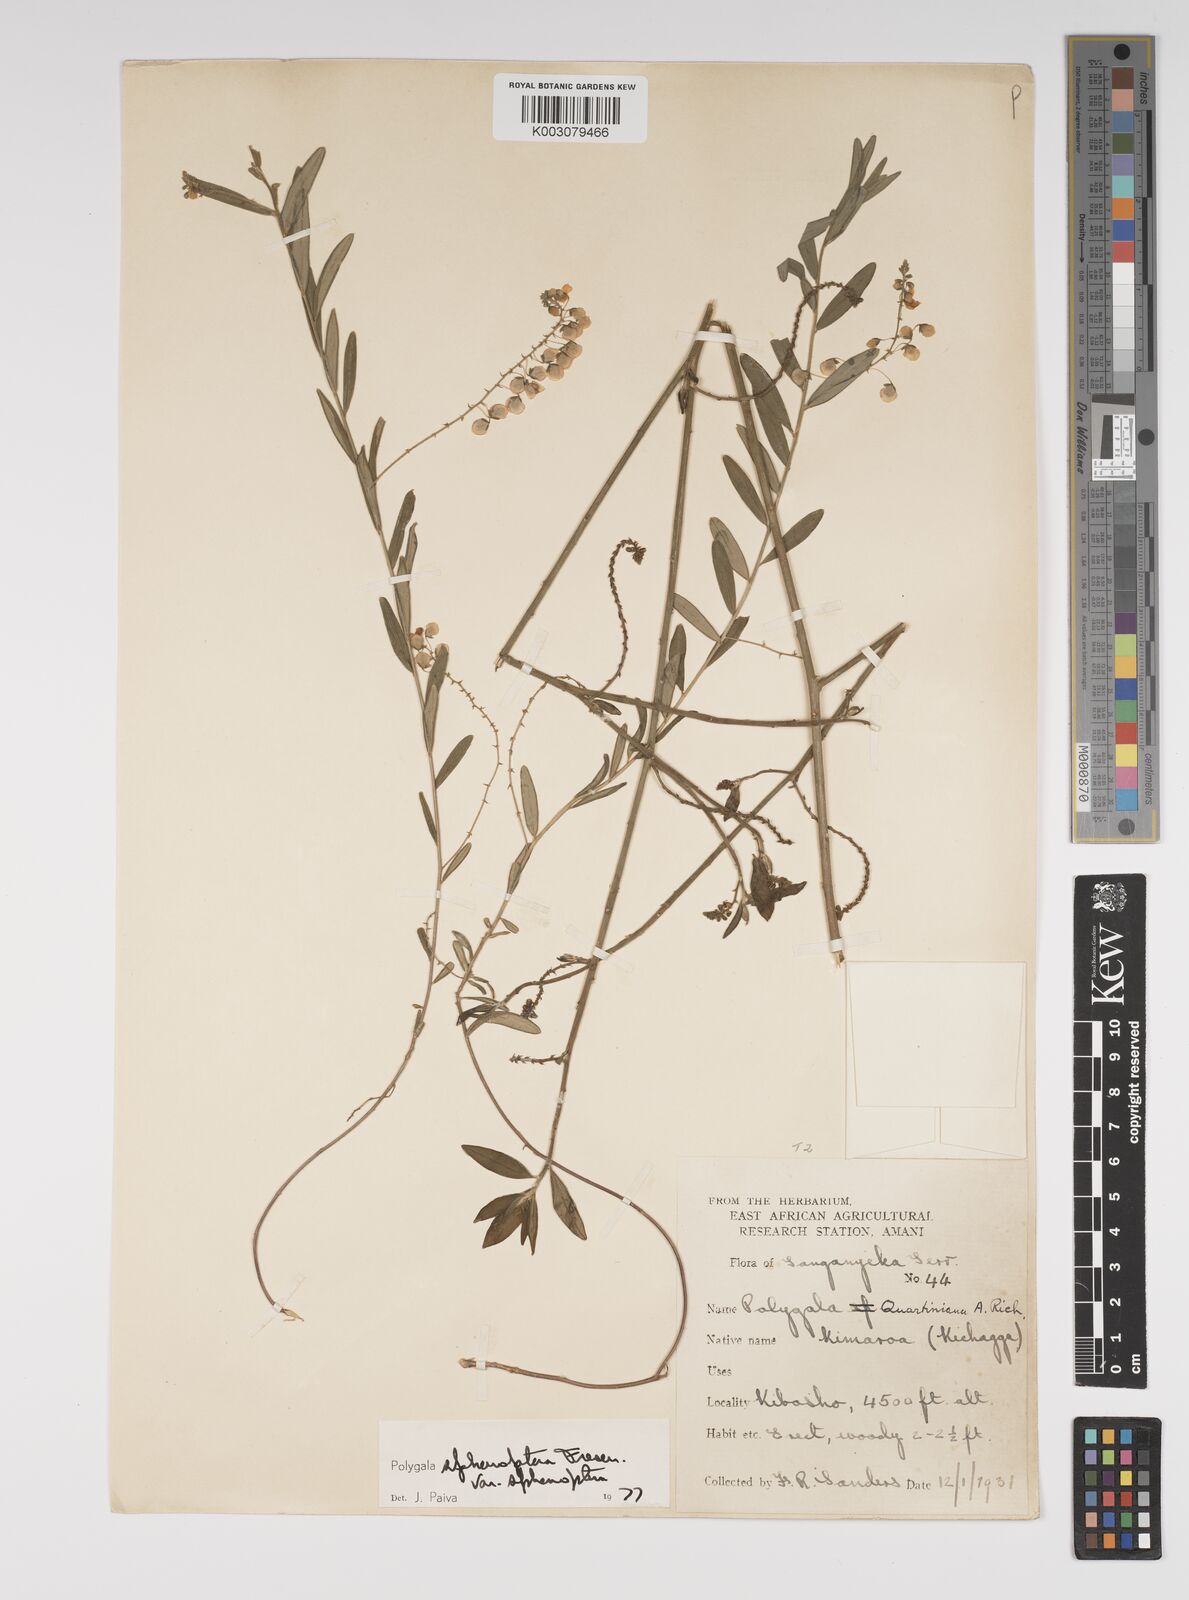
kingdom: Plantae
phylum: Tracheophyta
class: Magnoliopsida
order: Fabales
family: Polygalaceae
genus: Polygala
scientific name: Polygala sphenoptera
